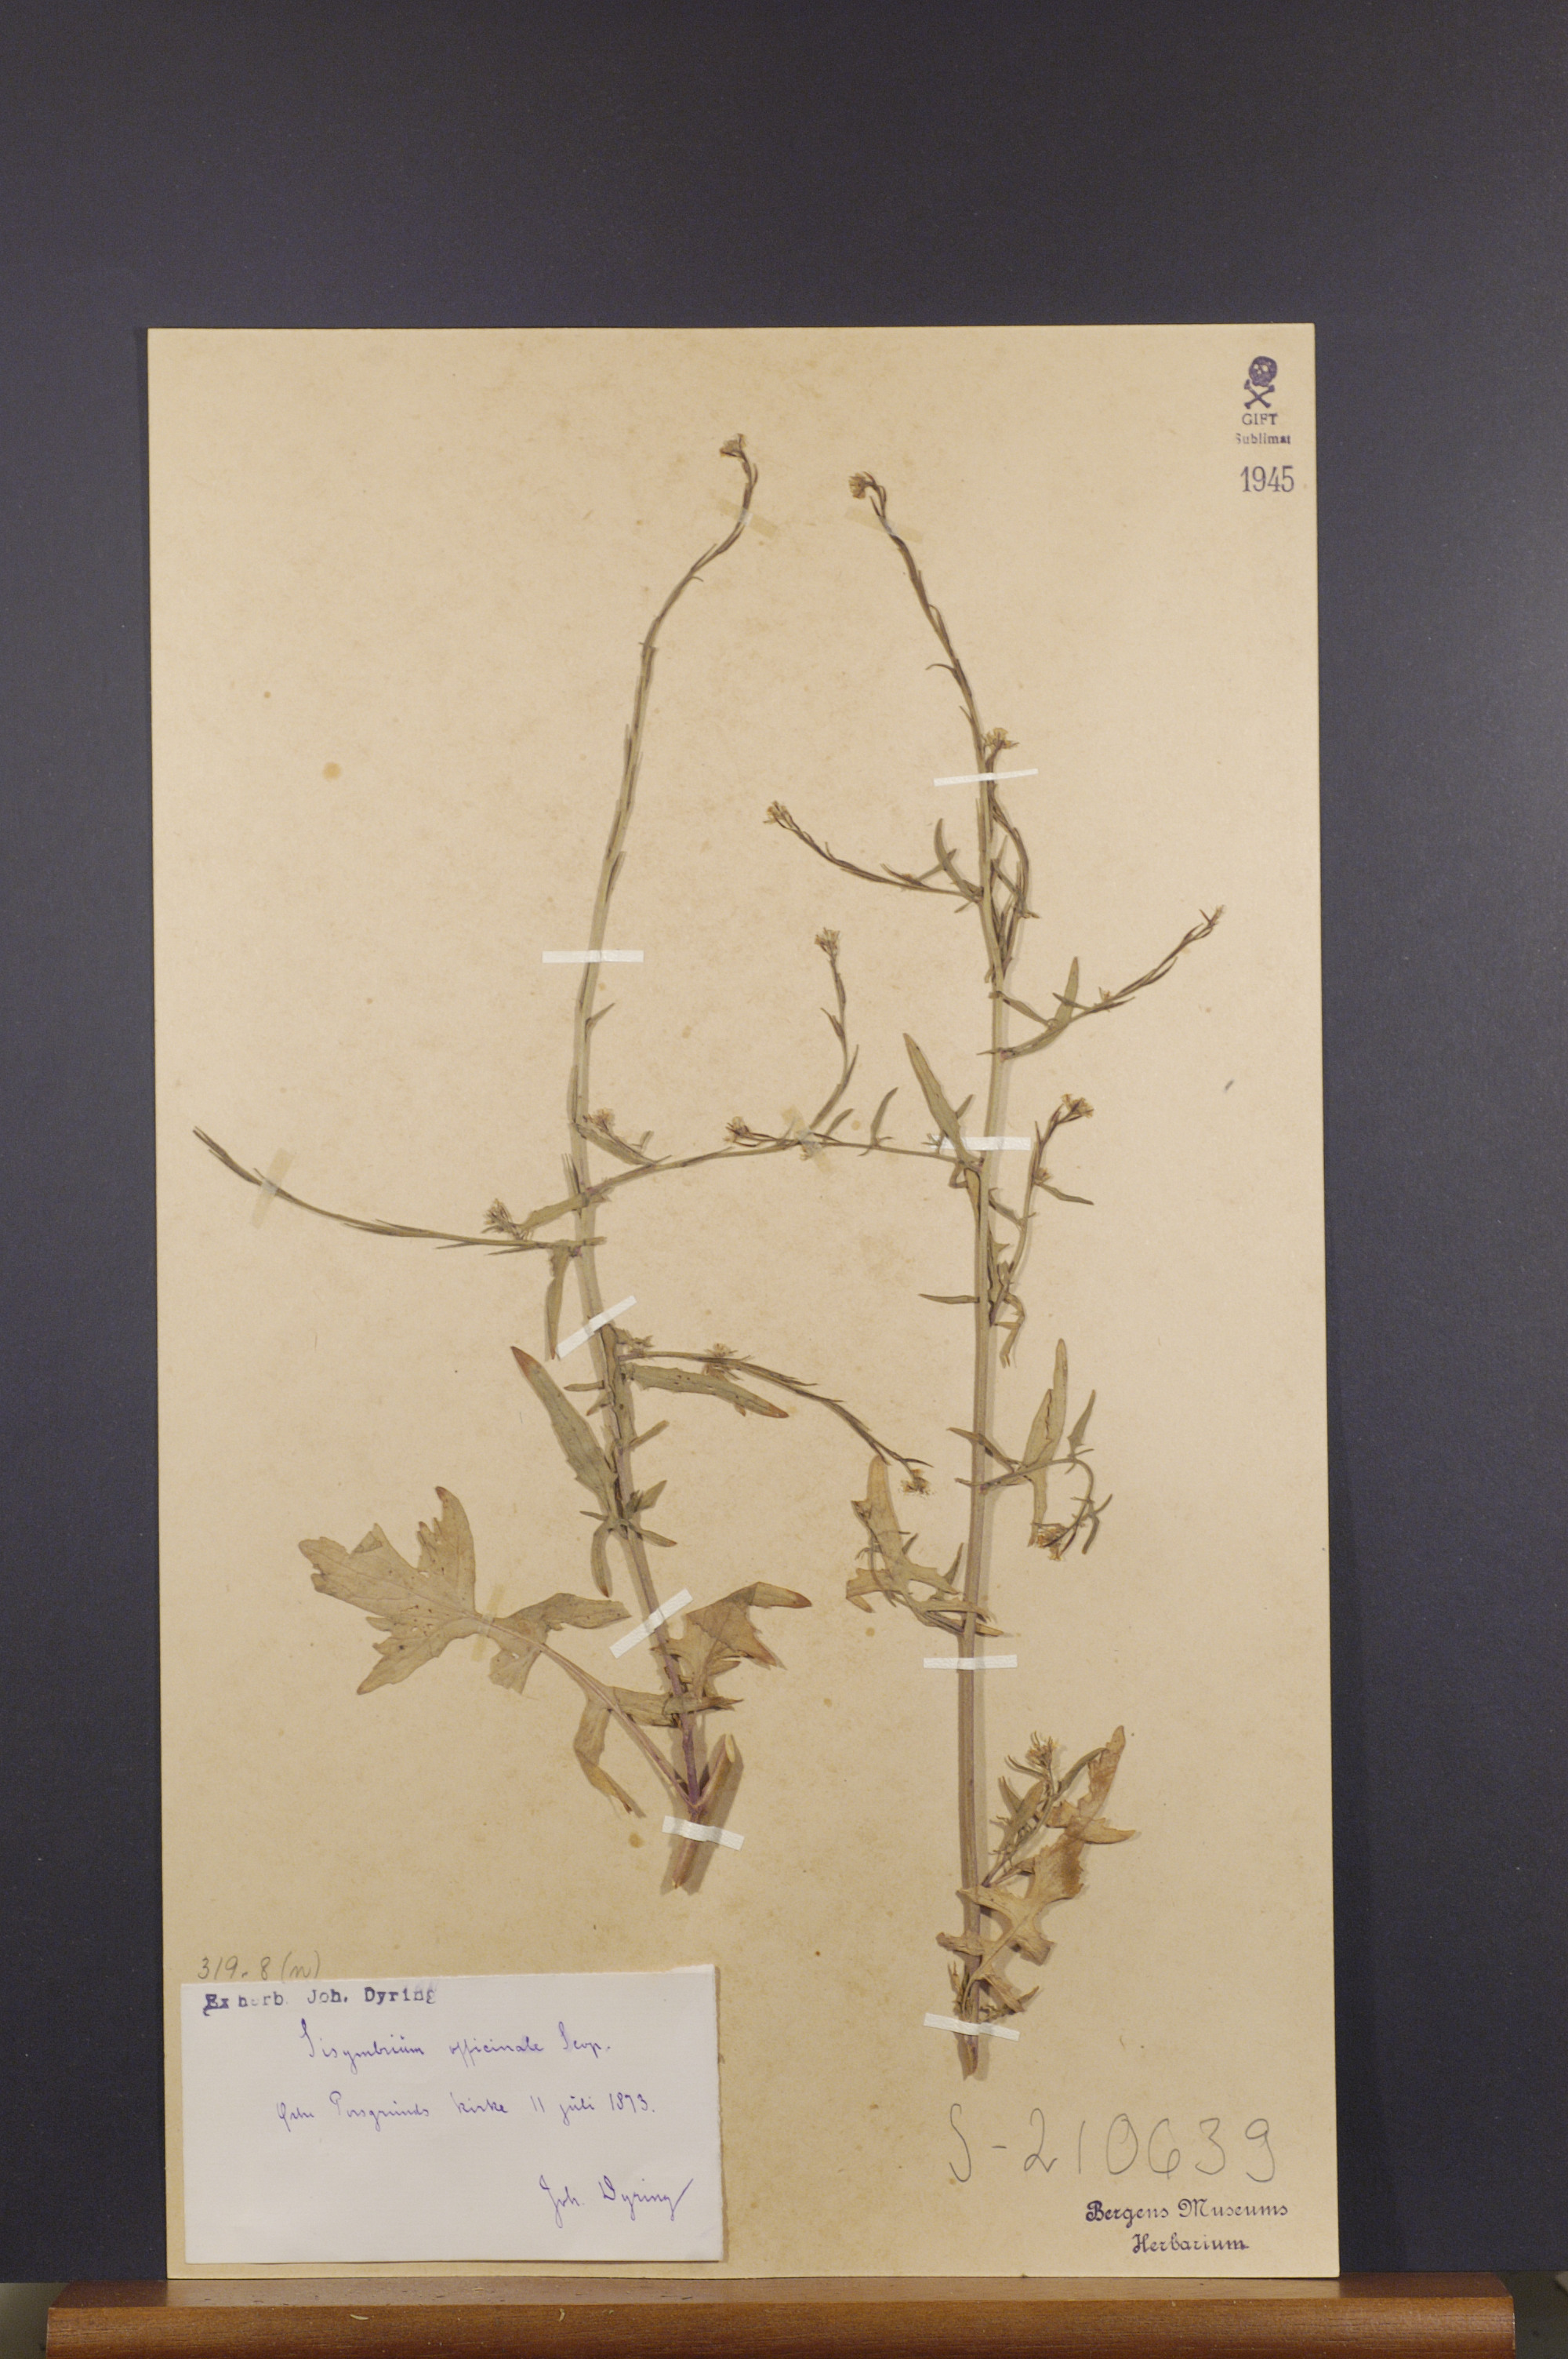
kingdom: Plantae
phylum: Tracheophyta
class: Magnoliopsida
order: Brassicales
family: Brassicaceae
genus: Sisymbrium
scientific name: Sisymbrium officinale
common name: Hedge mustard
